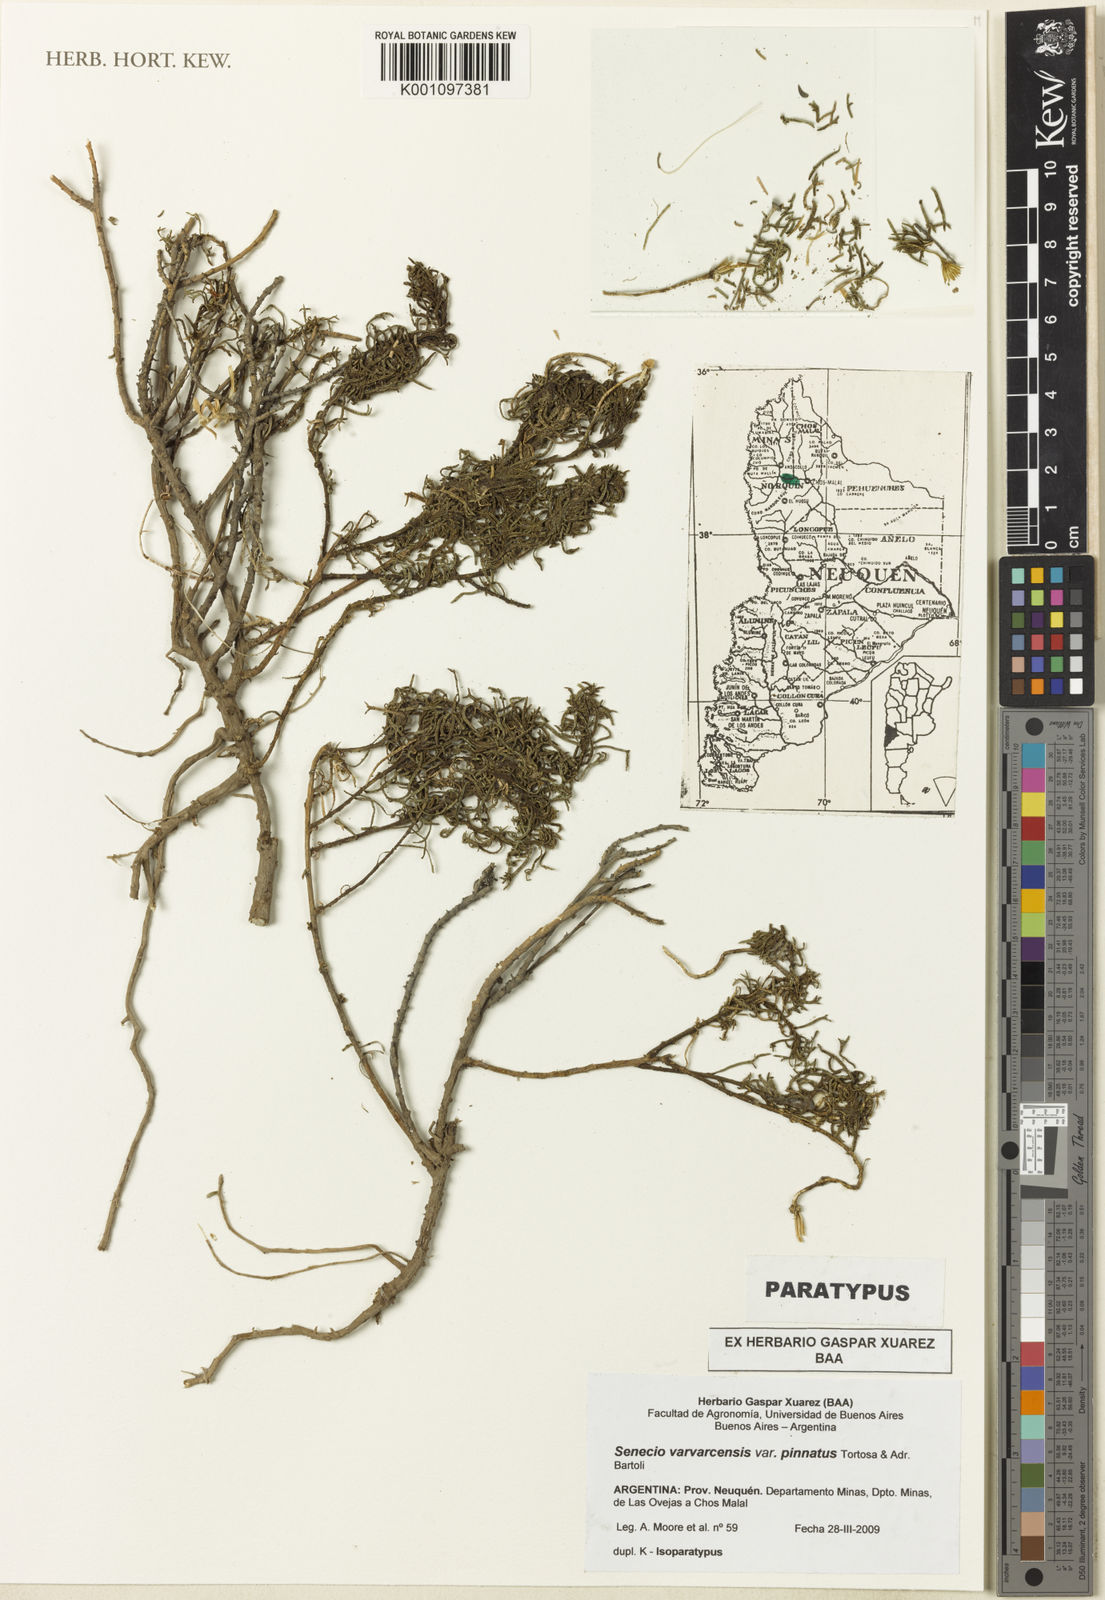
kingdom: Plantae
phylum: Tracheophyta
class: Magnoliopsida
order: Asterales
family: Asteraceae
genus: Senecio
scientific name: Senecio varvarcensis
